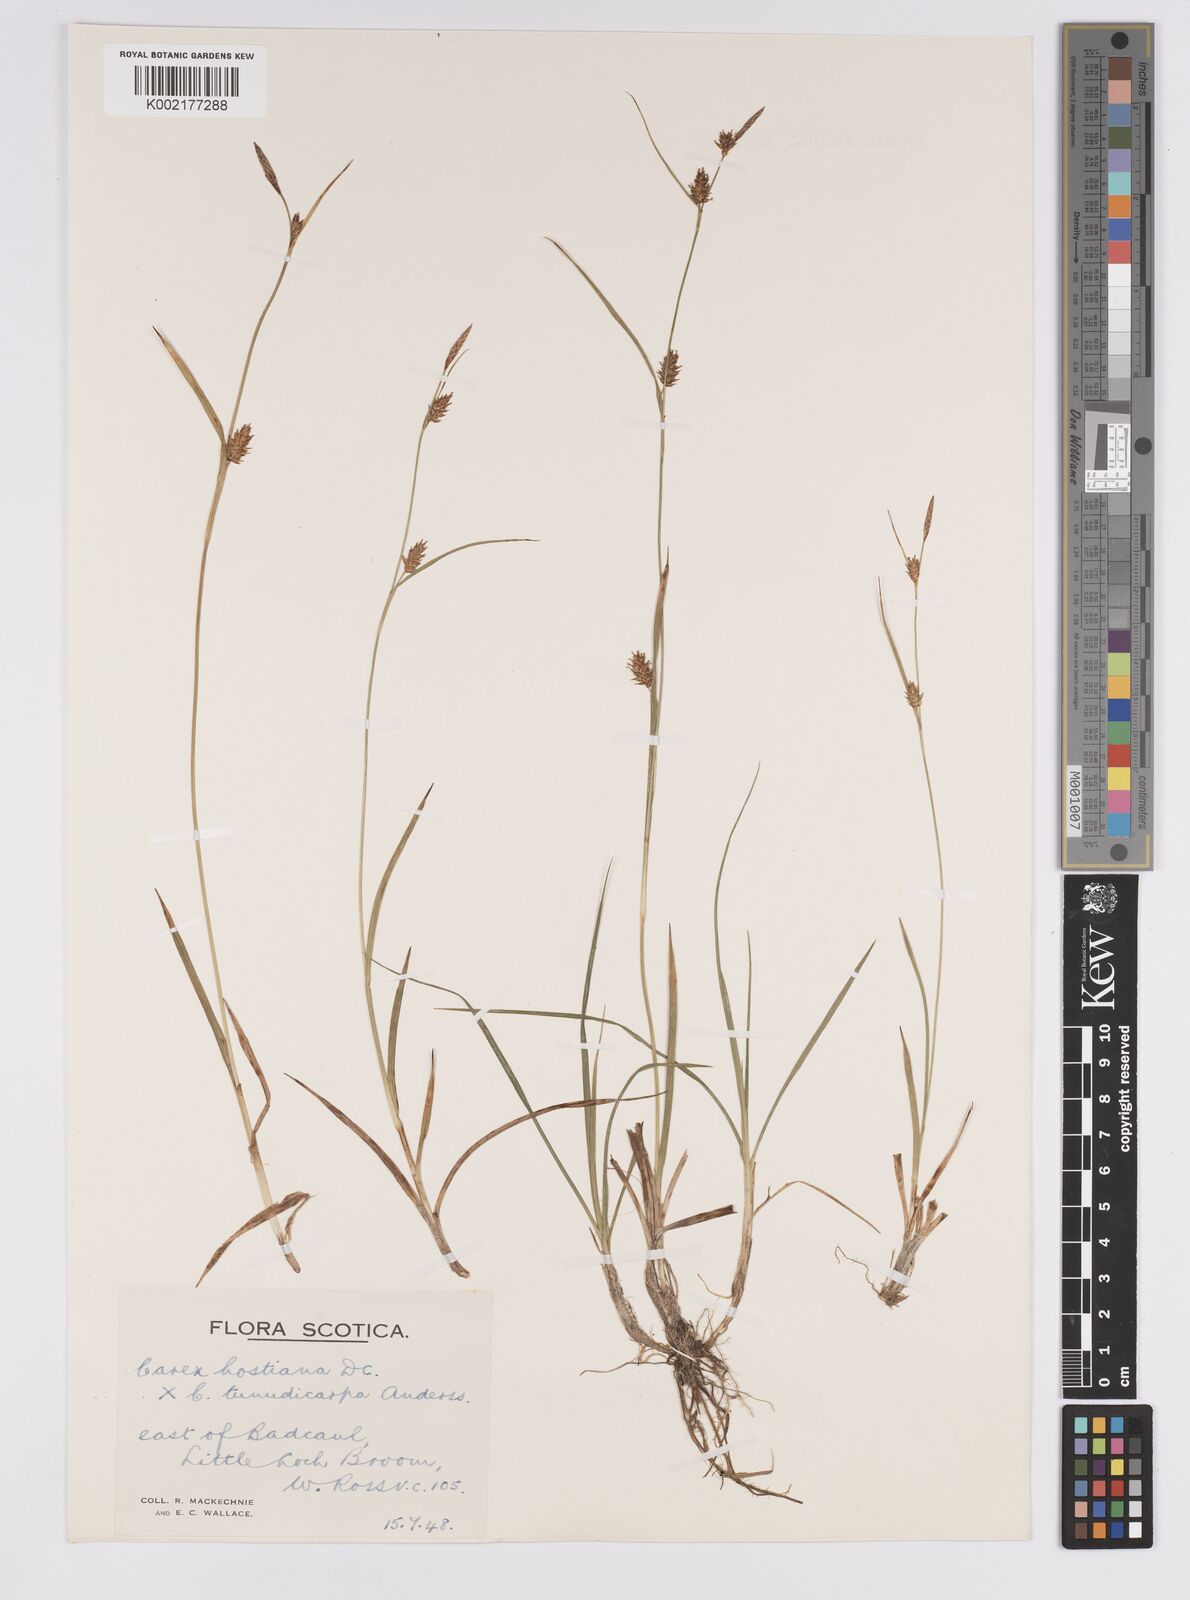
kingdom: Plantae
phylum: Tracheophyta
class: Liliopsida
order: Poales
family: Cyperaceae
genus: Carex
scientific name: Carex hostiana
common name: Tawny sedge
